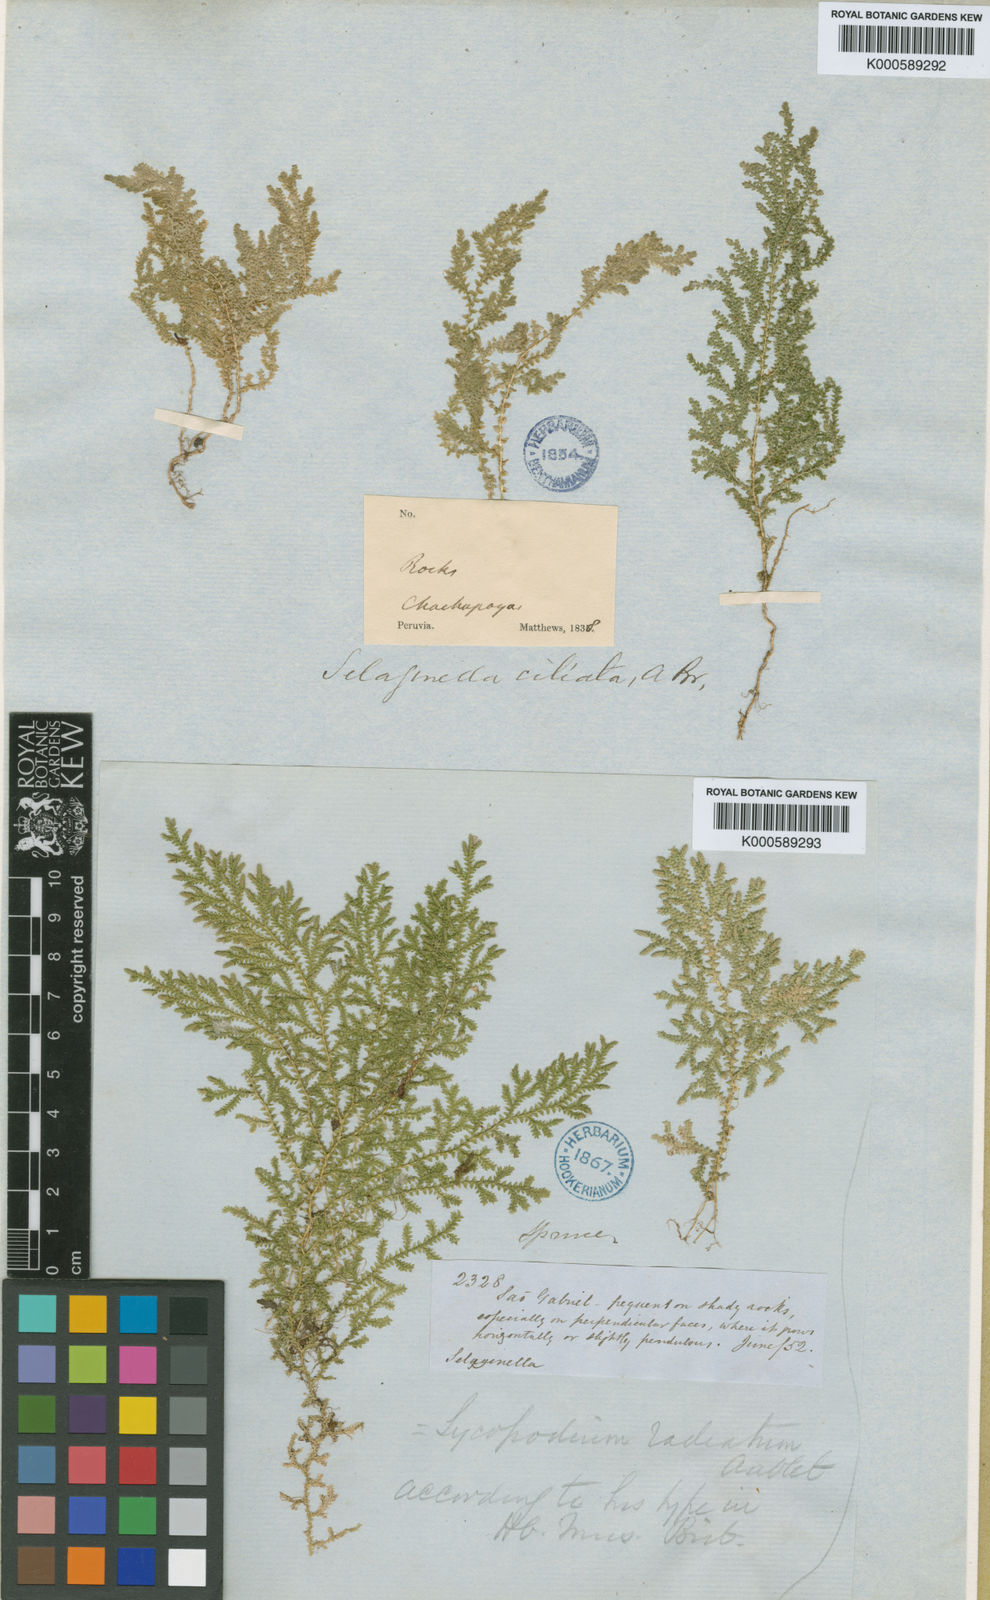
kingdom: Plantae
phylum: Tracheophyta
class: Lycopodiopsida
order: Selaginellales
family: Selaginellaceae
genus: Selaginella
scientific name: Selaginella novae-hollandiae
